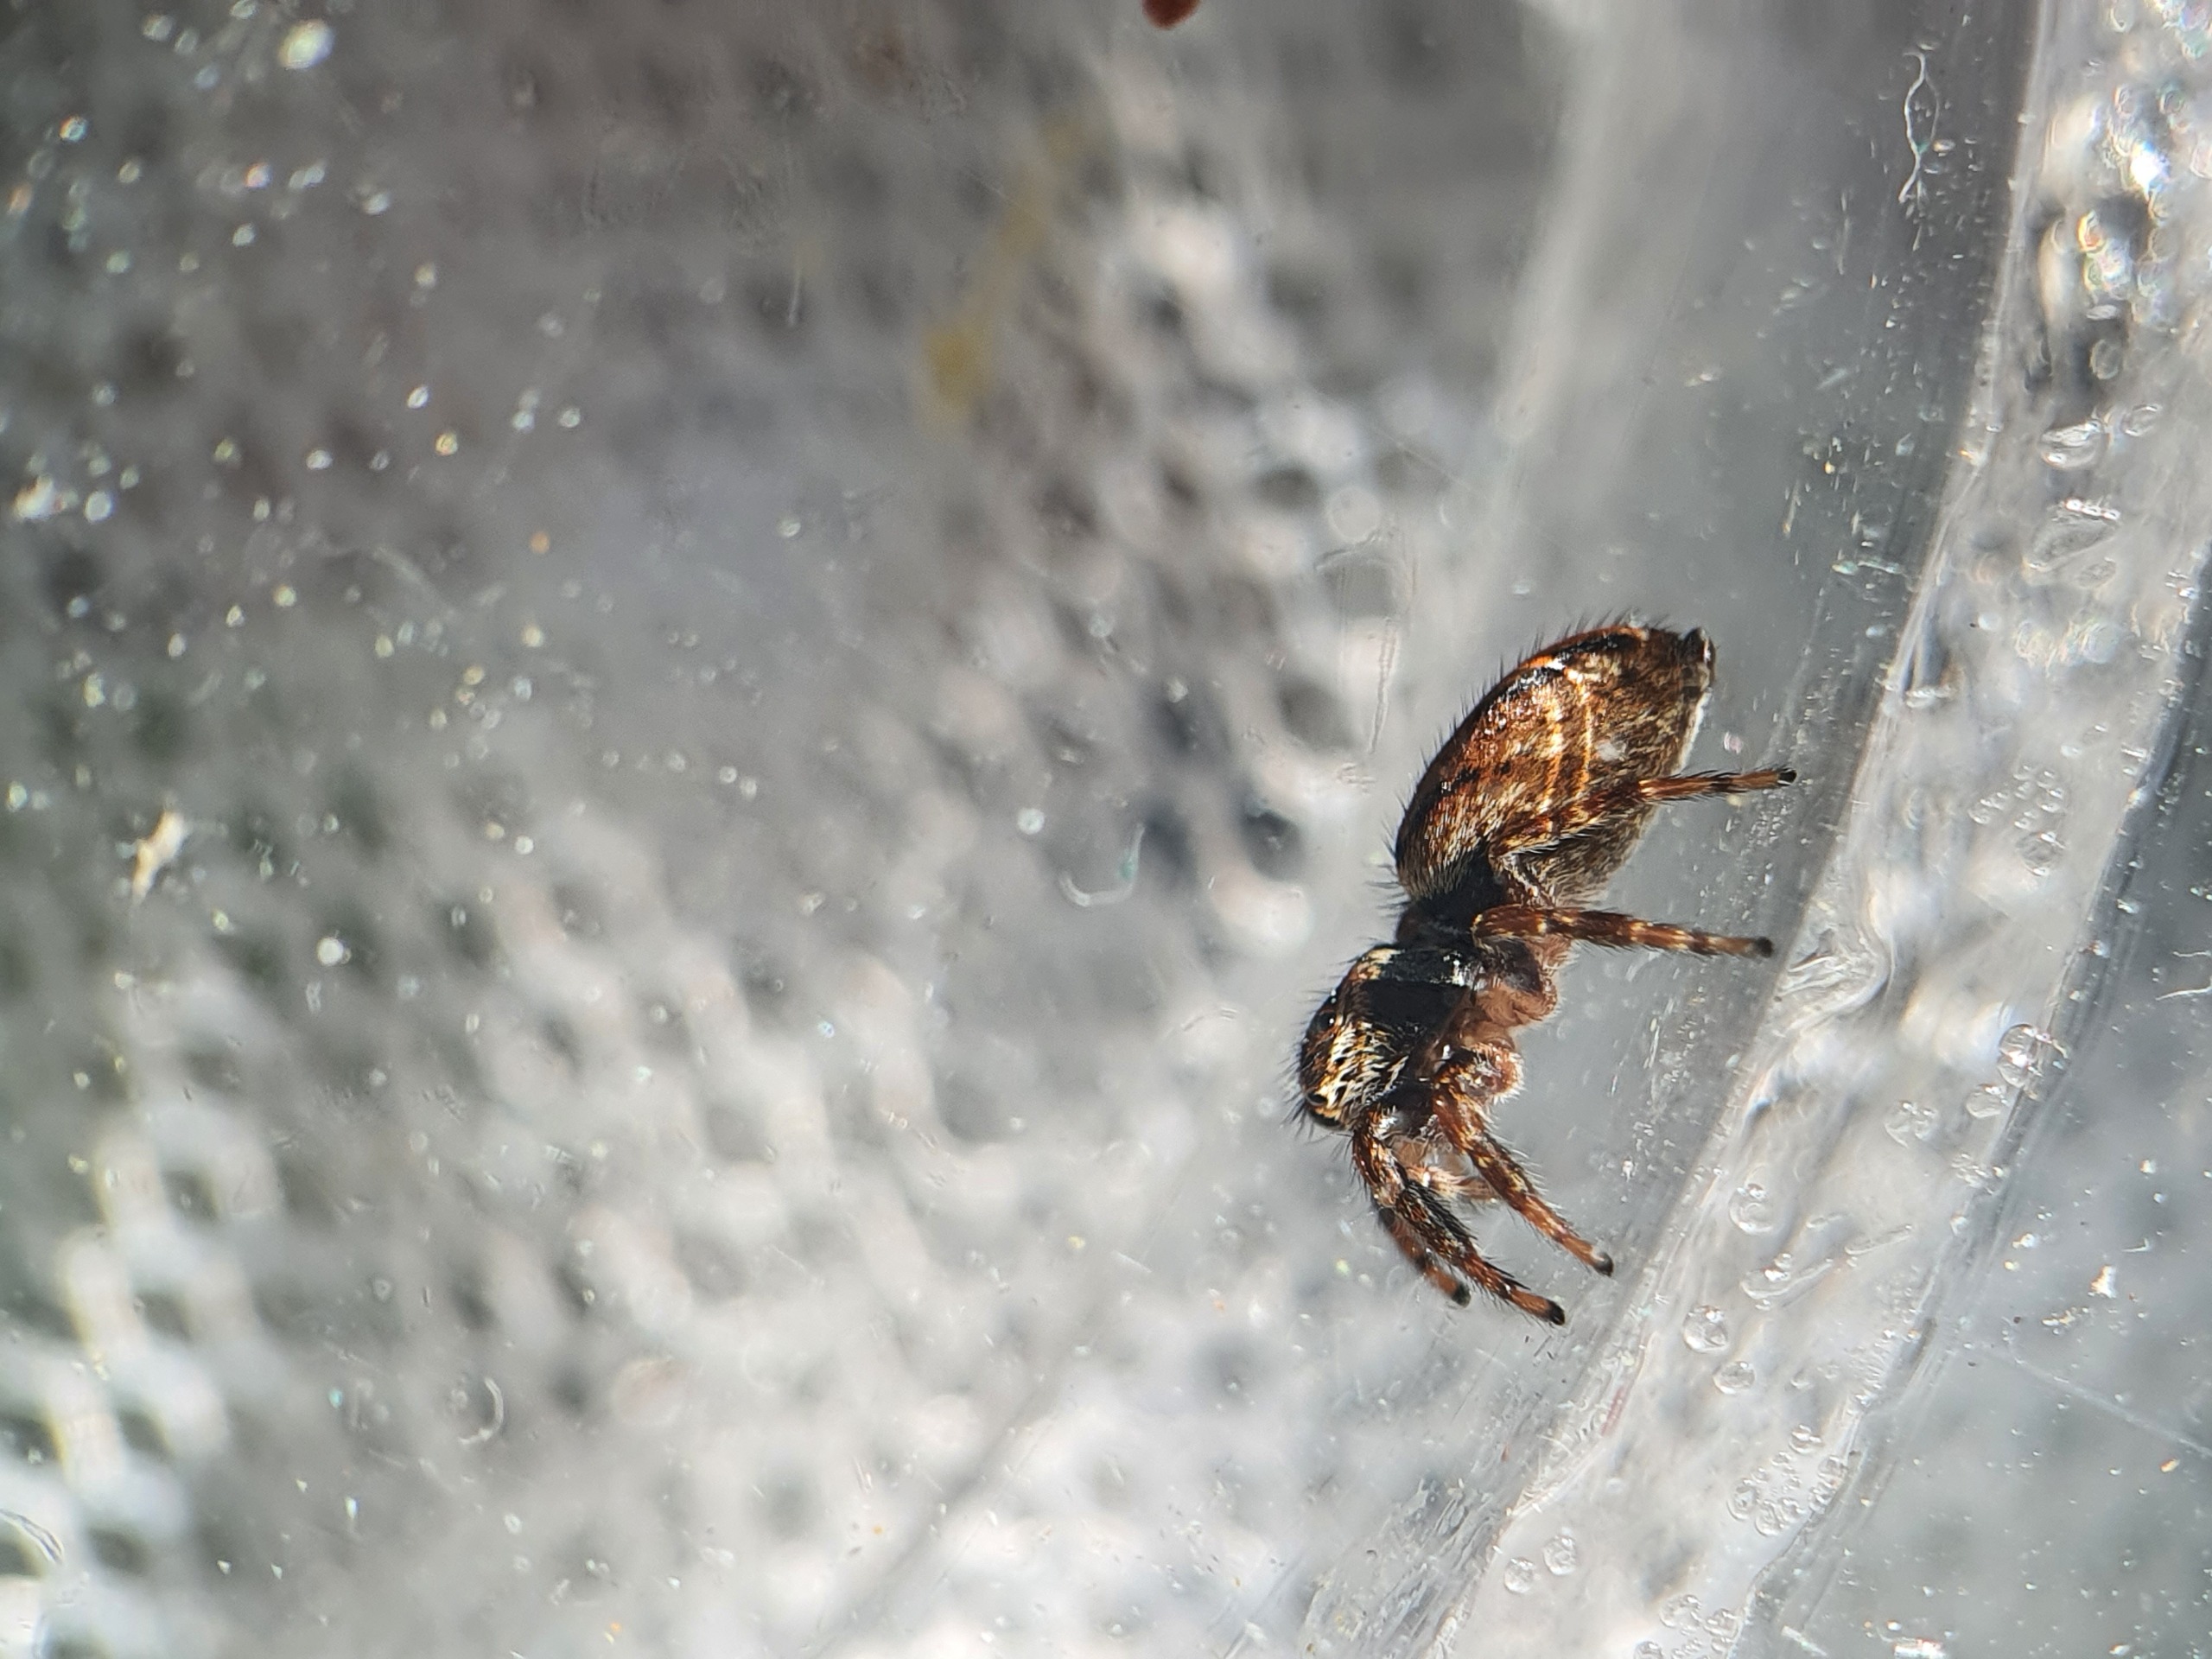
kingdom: Animalia
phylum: Arthropoda
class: Arachnida
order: Araneae
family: Salticidae
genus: Evarcha
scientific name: Evarcha falcata
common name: Broget springedderkop
